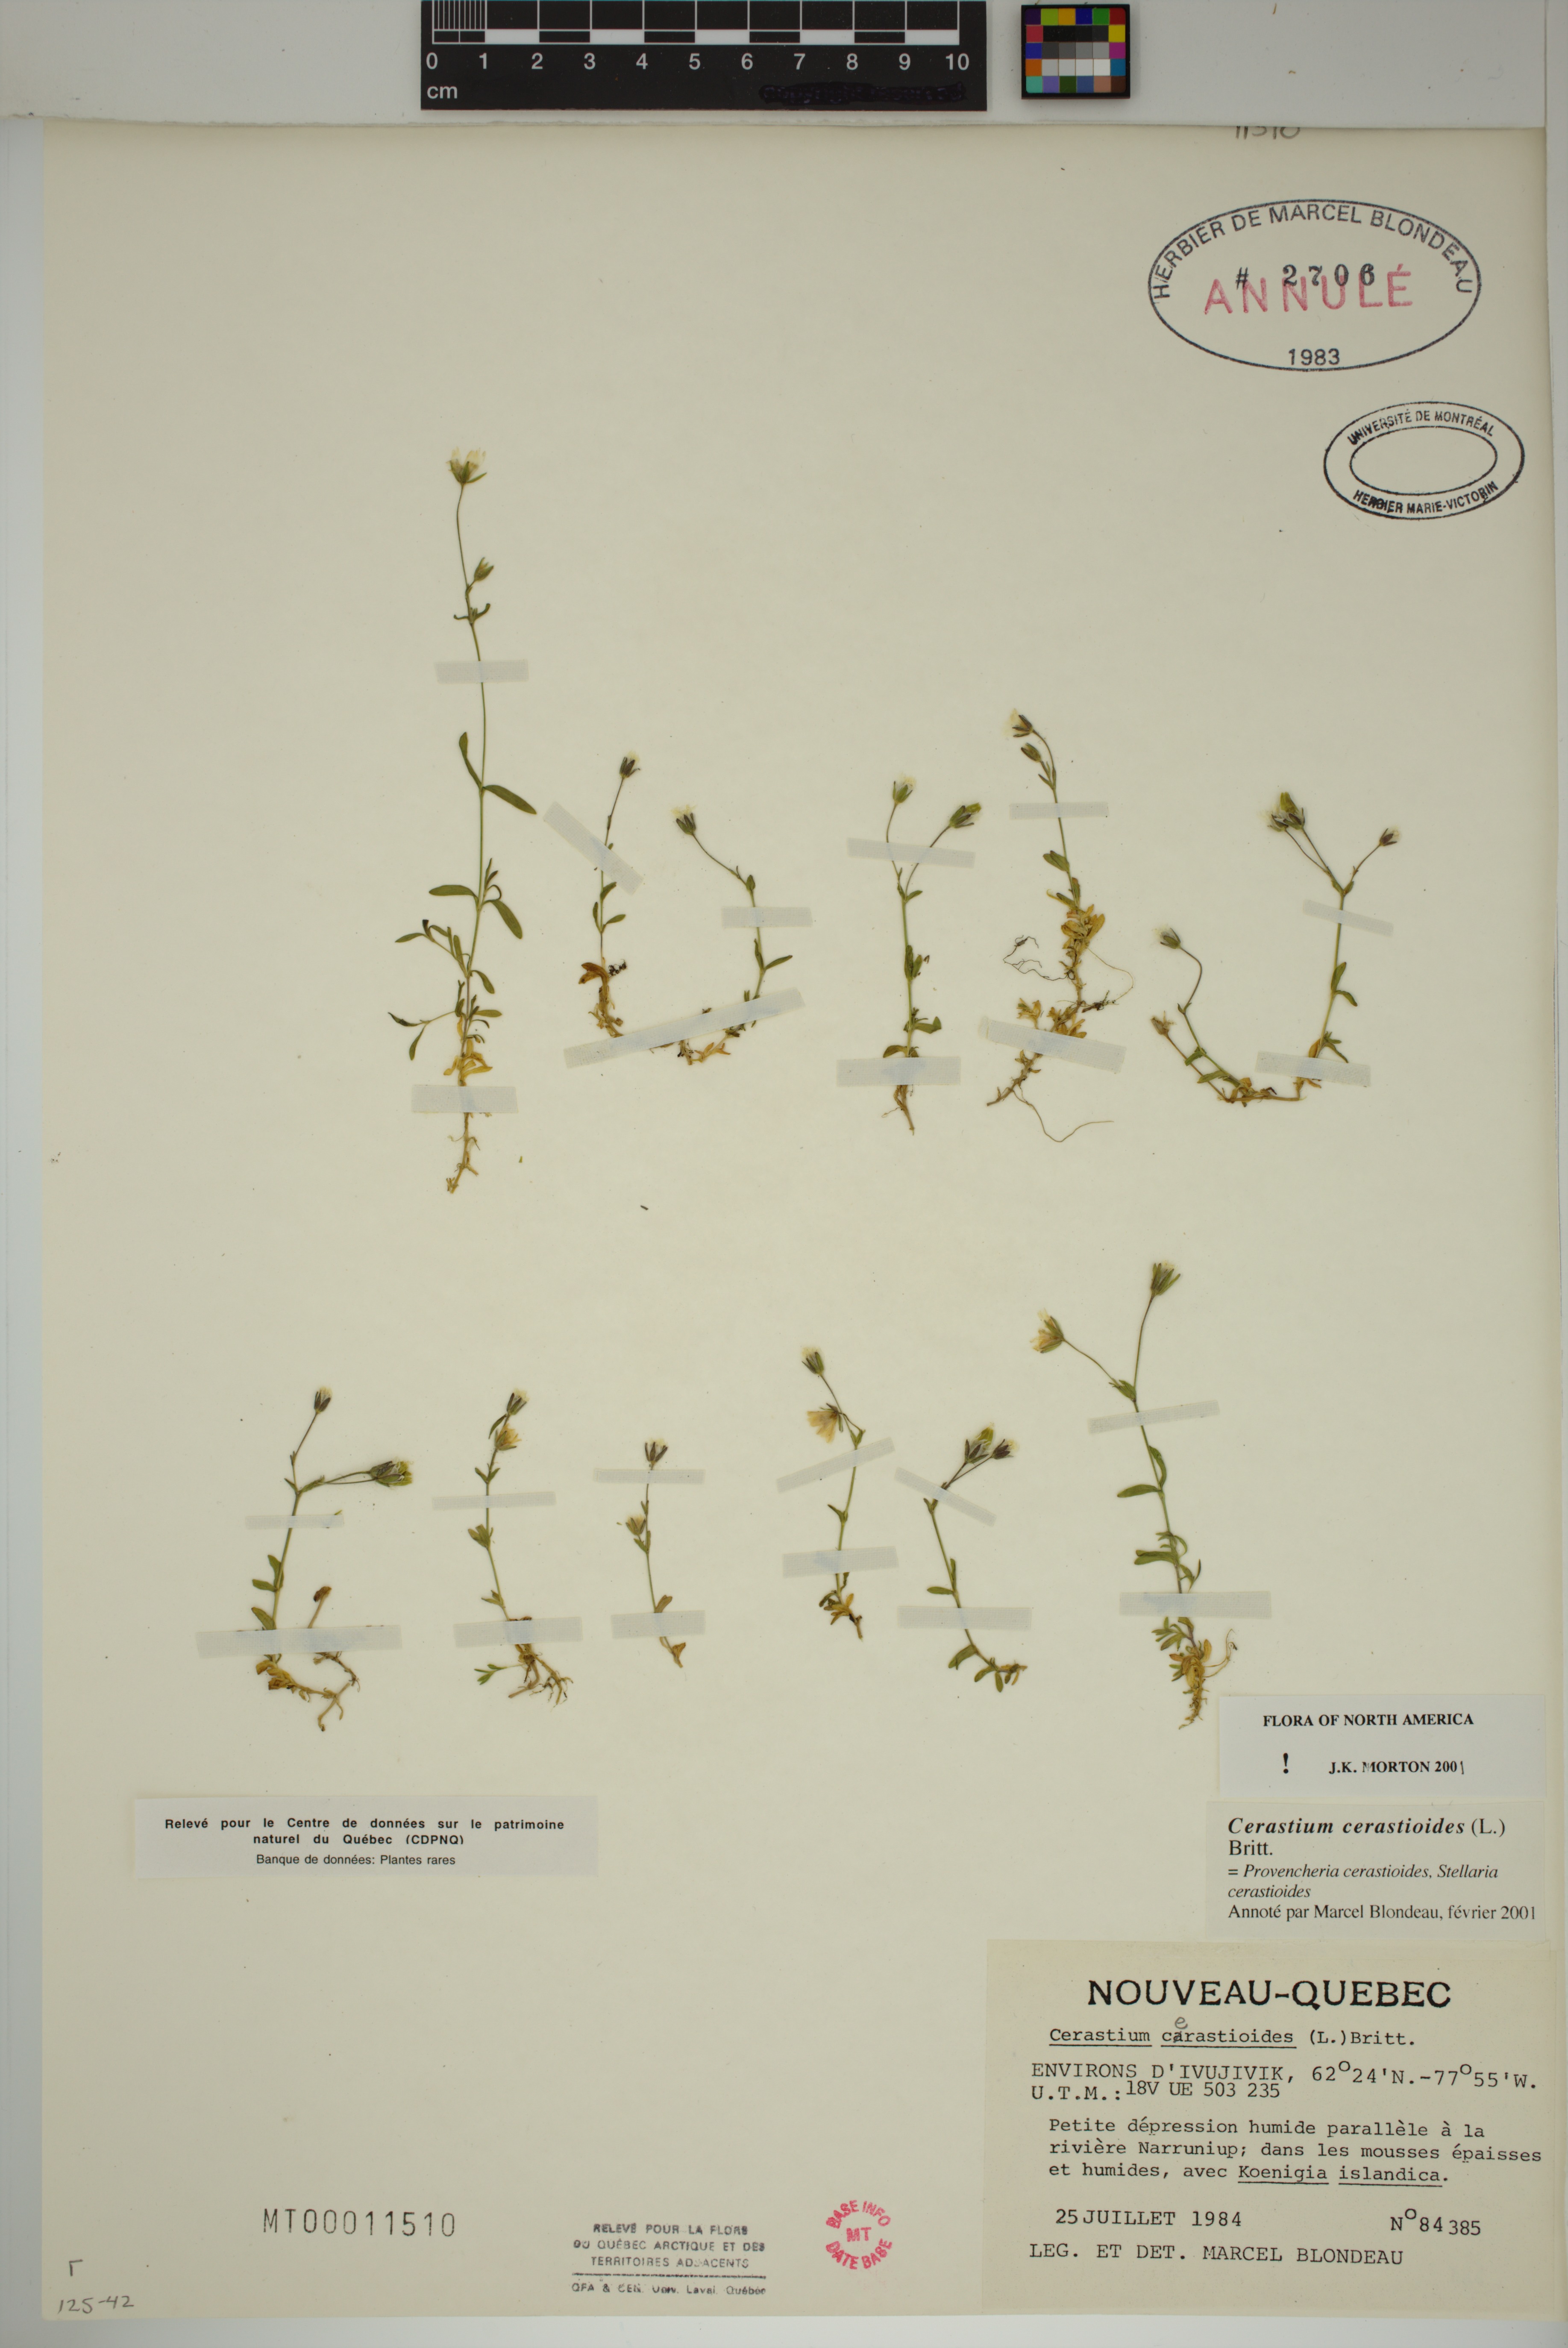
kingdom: Plantae
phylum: Tracheophyta
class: Magnoliopsida
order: Caryophyllales
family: Caryophyllaceae
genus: Dichodon
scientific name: Dichodon cerastoides
